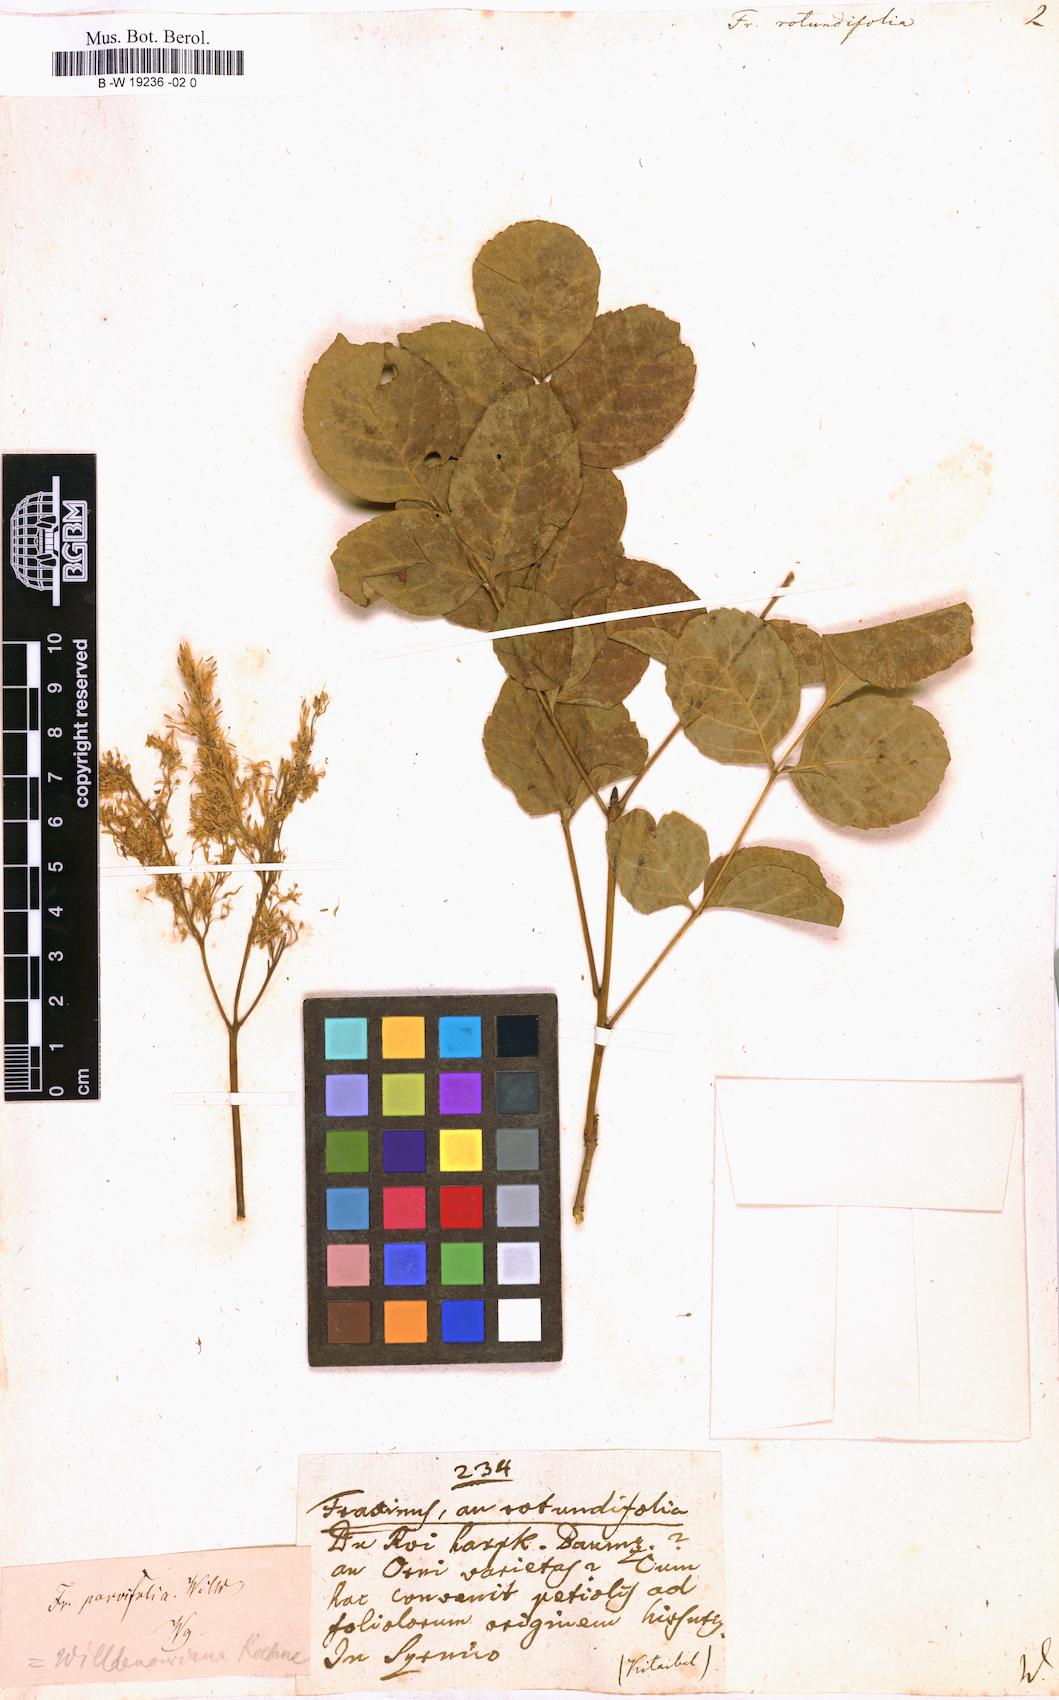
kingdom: Plantae
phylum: Tracheophyta
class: Magnoliopsida
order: Lamiales
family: Oleaceae
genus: Fraxinus
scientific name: Fraxinus ornus
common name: Manna ash
